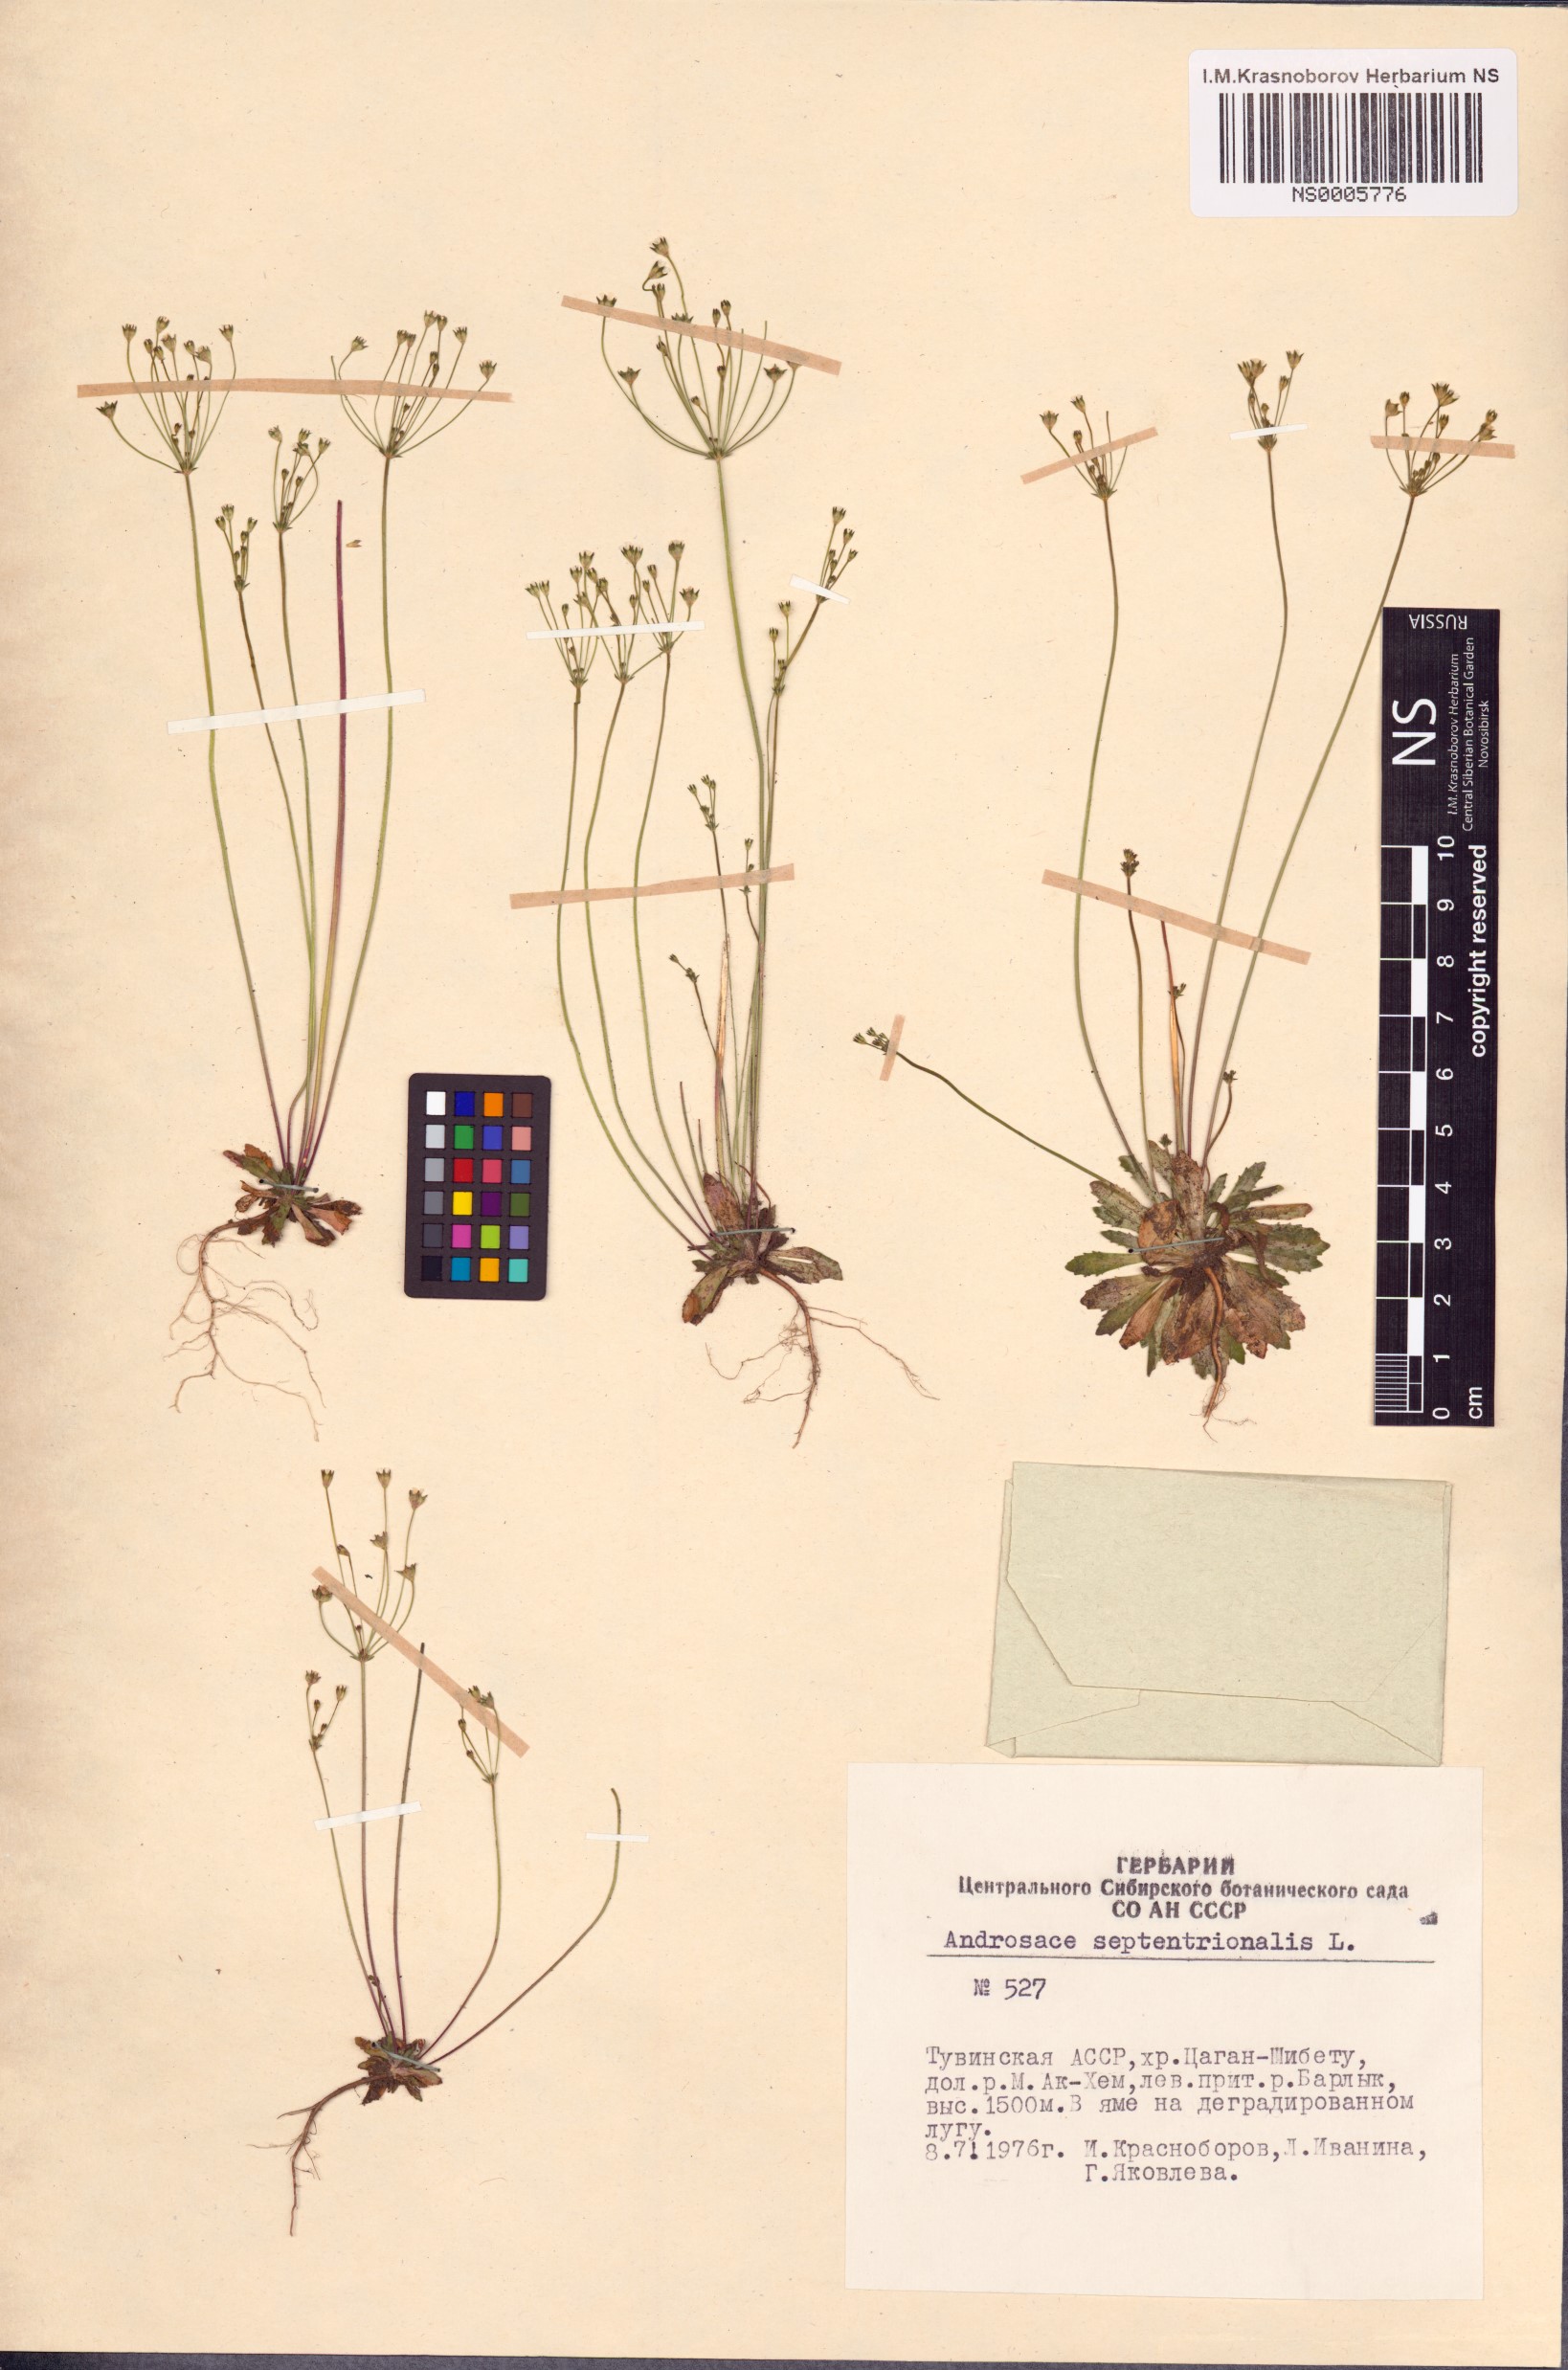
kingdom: Plantae
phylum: Tracheophyta
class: Magnoliopsida
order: Ericales
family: Primulaceae
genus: Androsace
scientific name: Androsace septentrionalis
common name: Hairy northern fairy-candelabra
